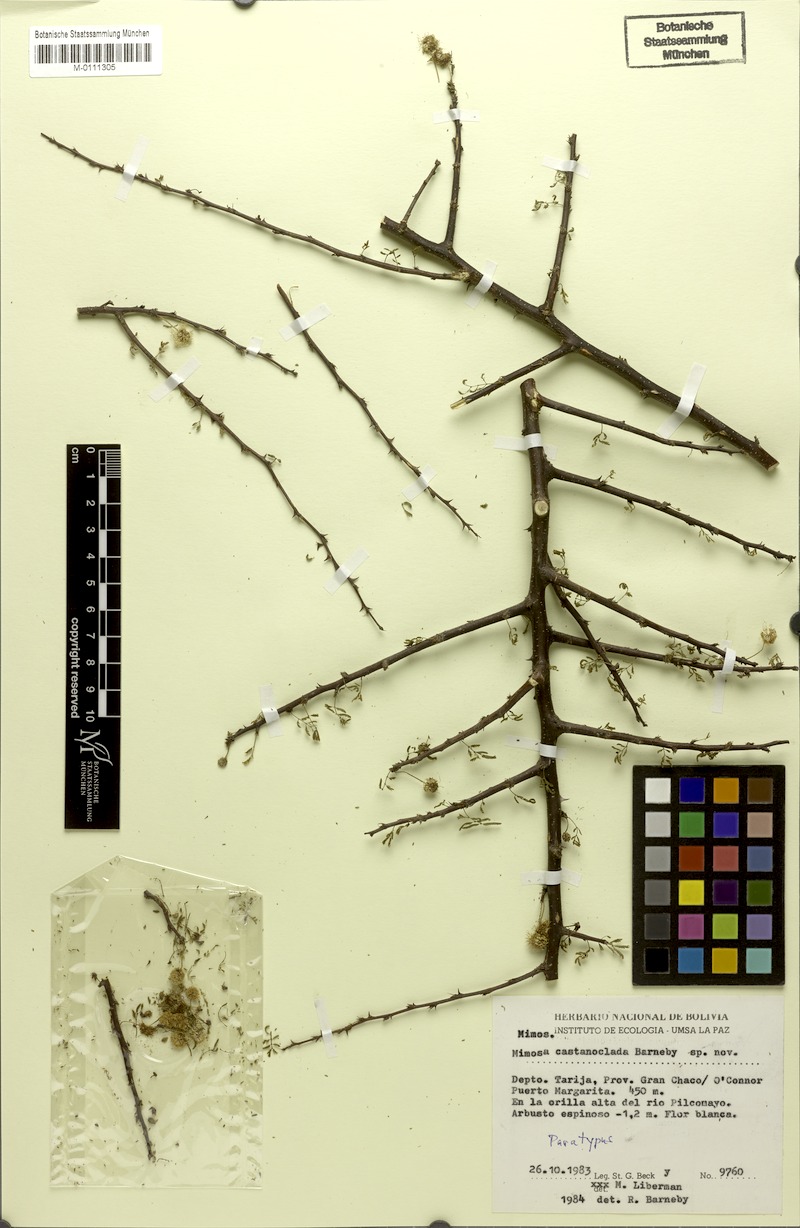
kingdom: Plantae
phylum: Tracheophyta
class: Magnoliopsida
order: Fabales
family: Fabaceae
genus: Mimosa
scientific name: Mimosa castanoclada
